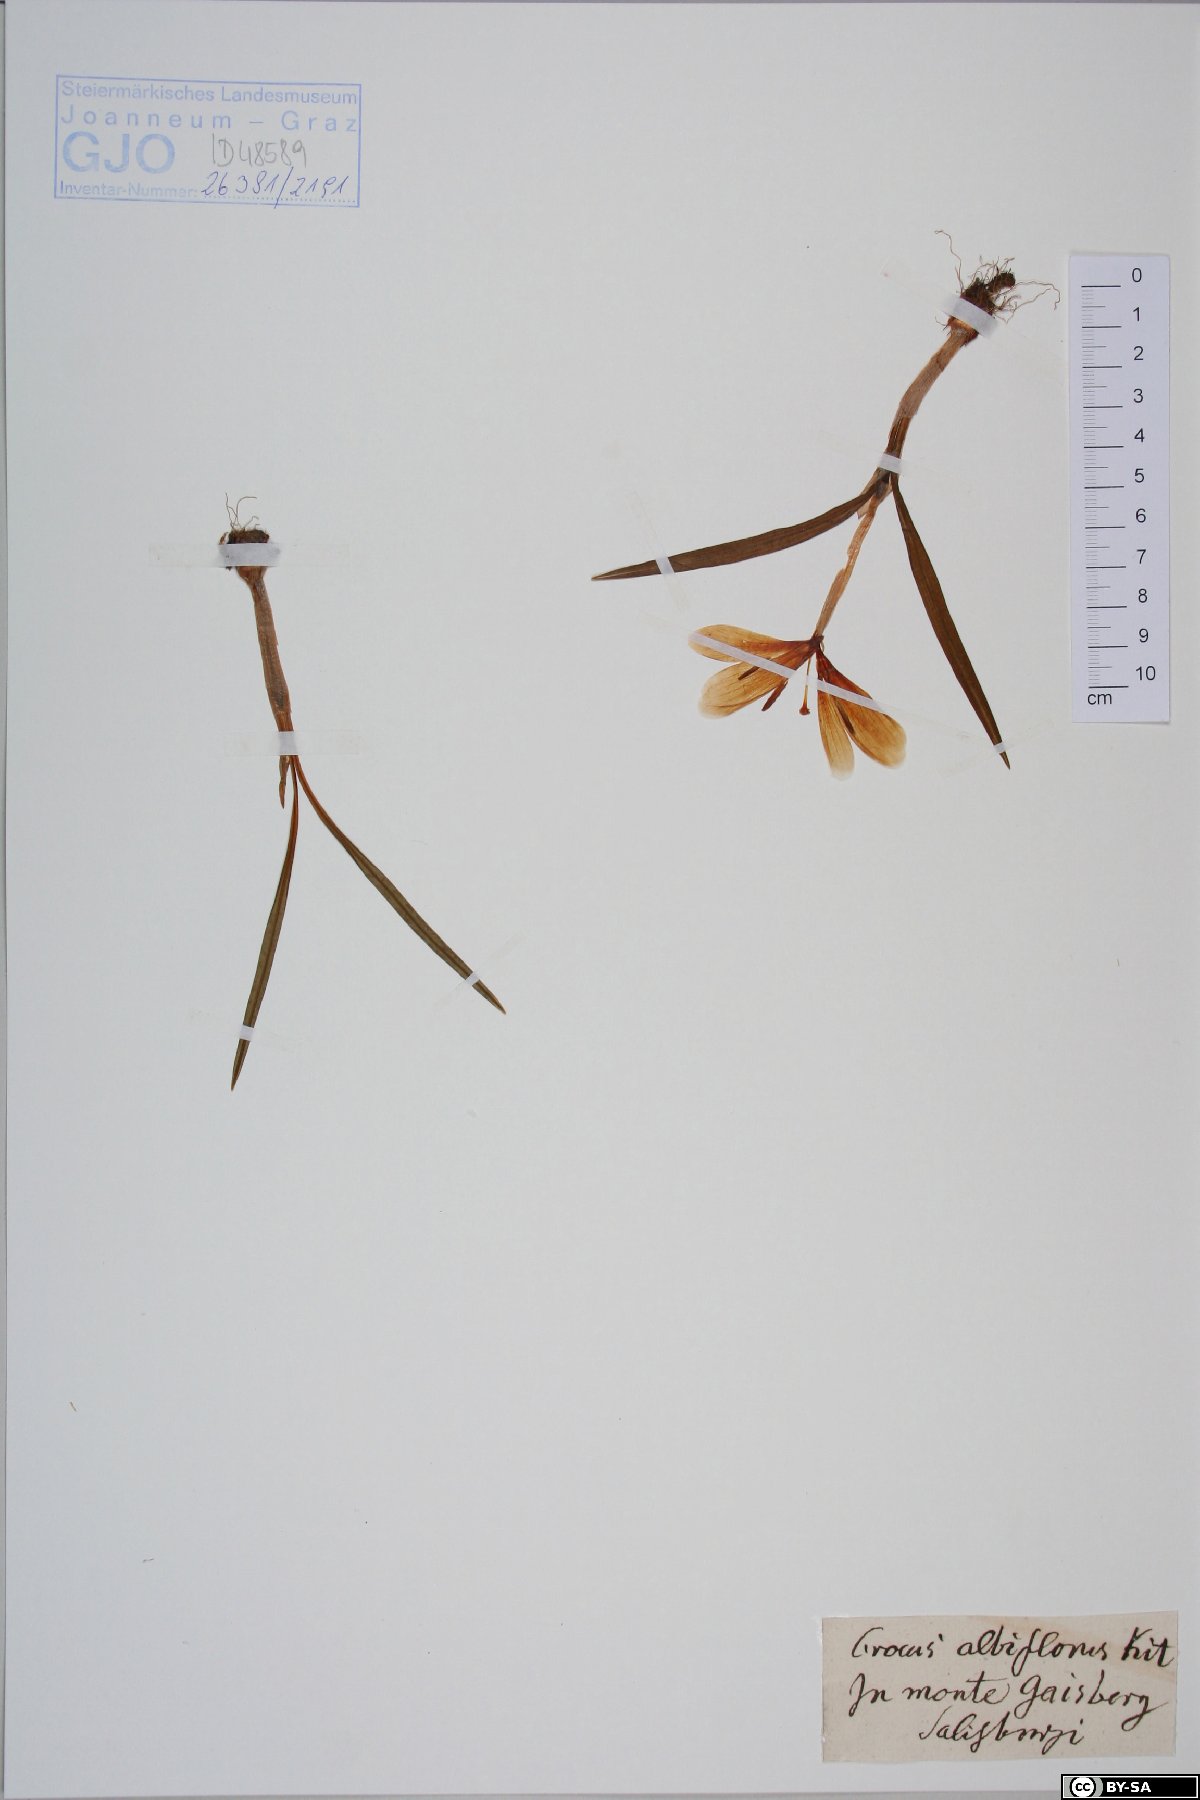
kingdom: Plantae
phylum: Tracheophyta
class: Liliopsida
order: Asparagales
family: Iridaceae
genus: Crocus
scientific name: Crocus vernus
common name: Spring crocus
